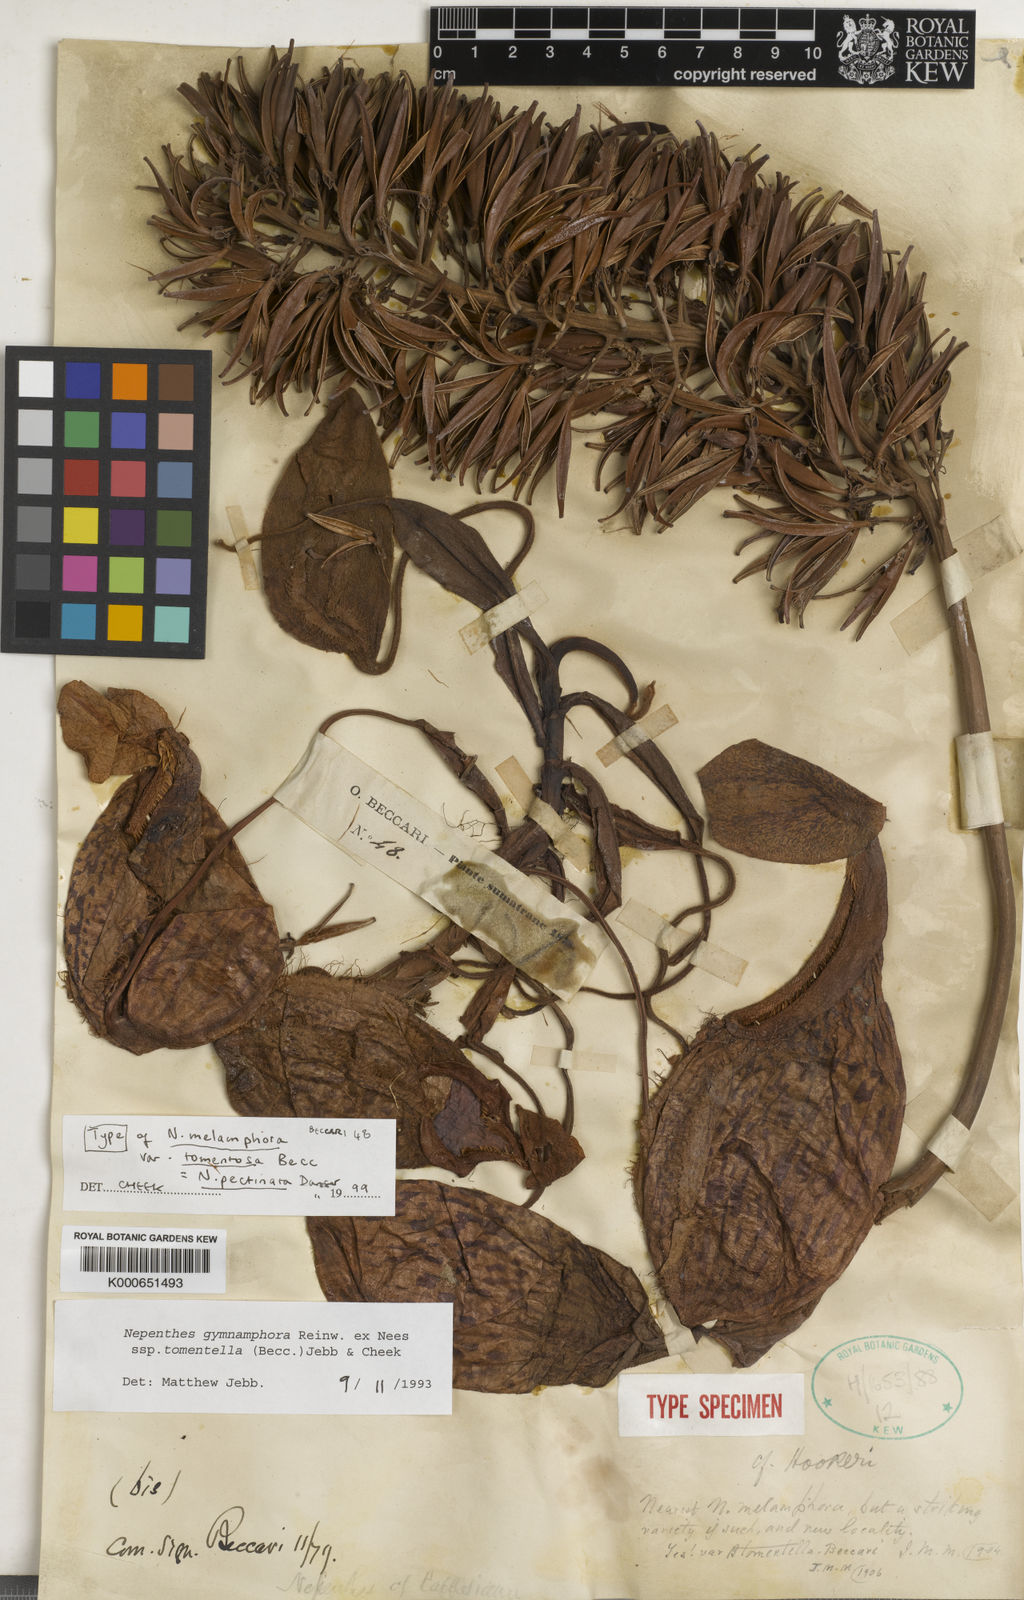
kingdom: Plantae
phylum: Tracheophyta
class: Magnoliopsida
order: Caryophyllales
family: Nepenthaceae
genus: Nepenthes
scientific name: Nepenthes pectinata
